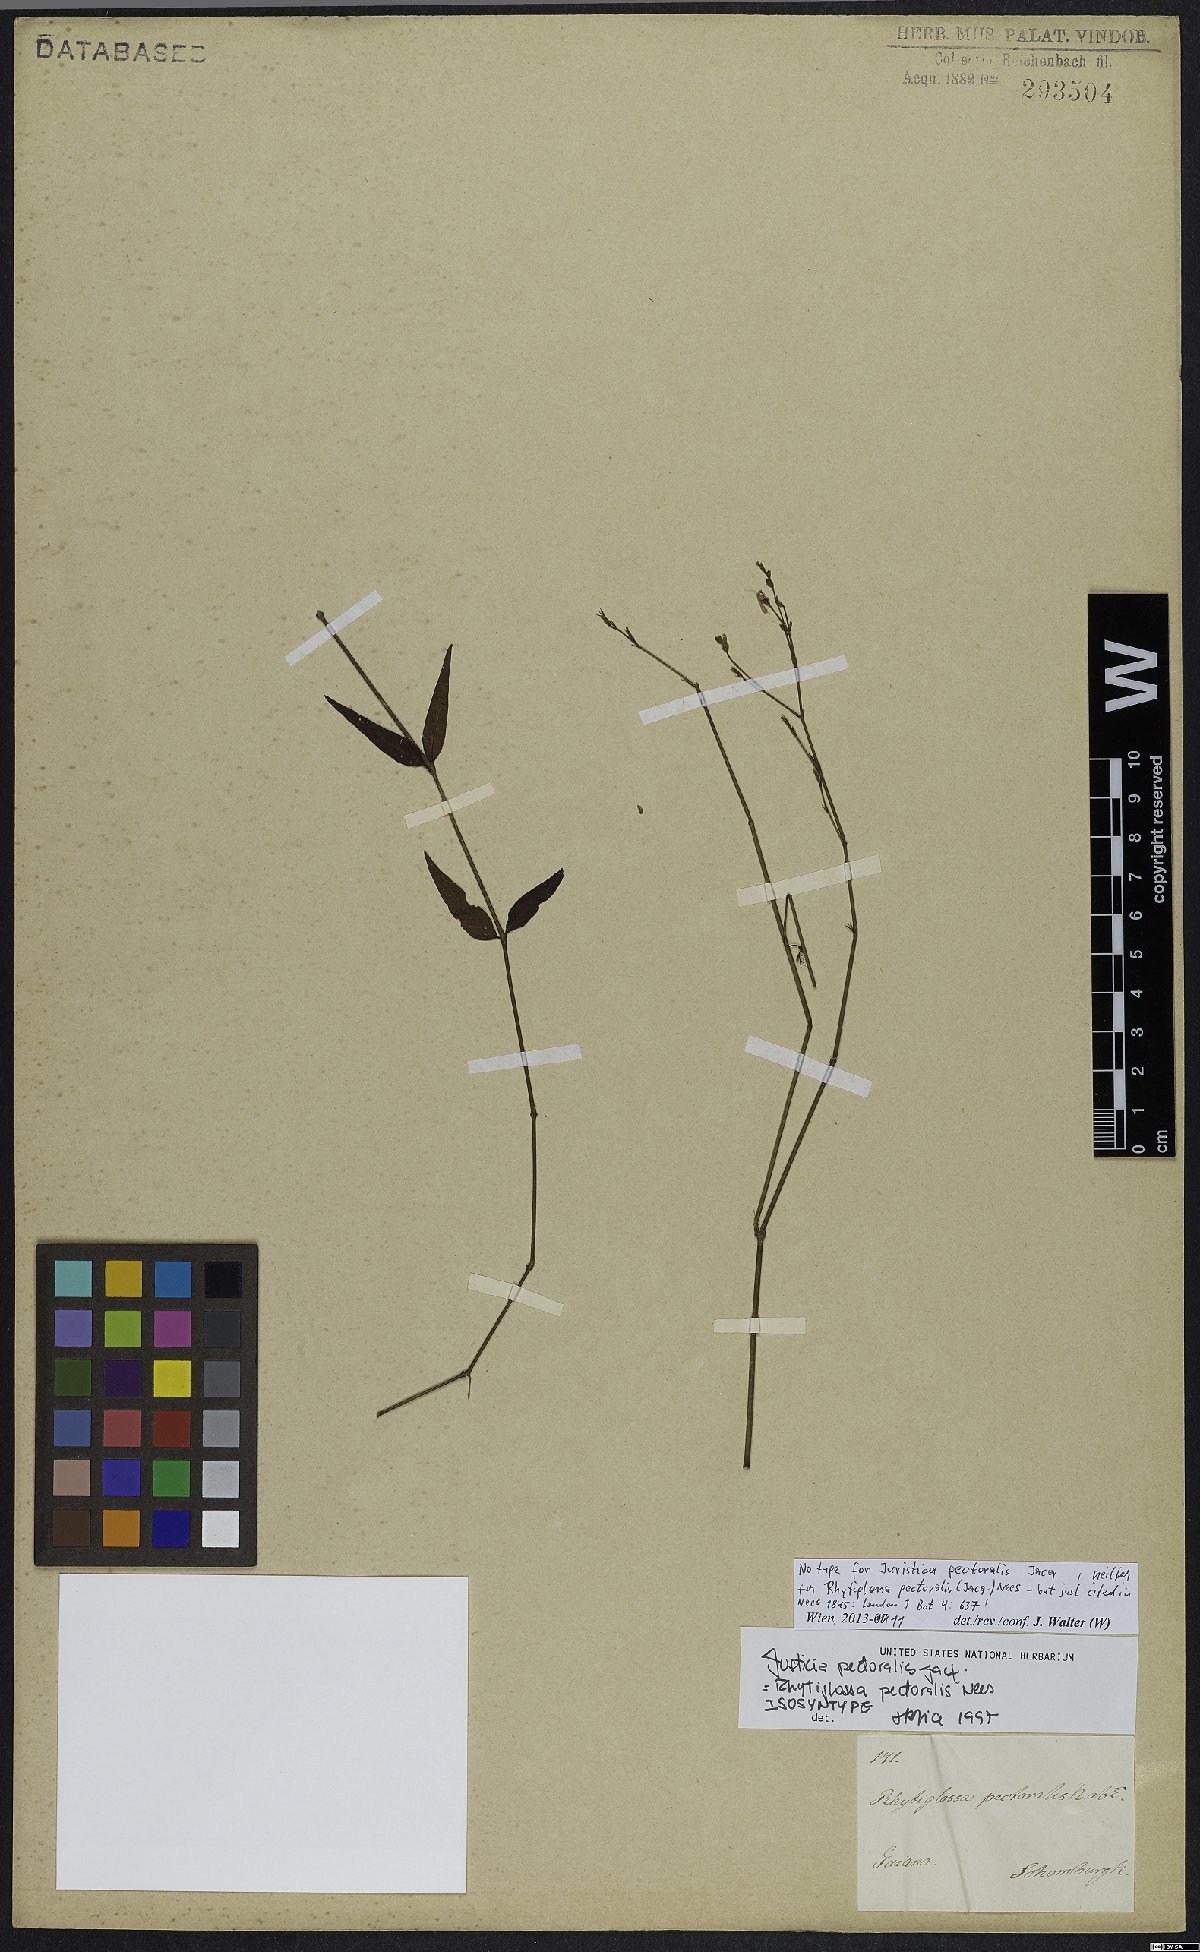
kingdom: Plantae
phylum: Tracheophyta
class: Magnoliopsida
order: Lamiales
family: Acanthaceae
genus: Dianthera
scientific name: Dianthera pectoralis
